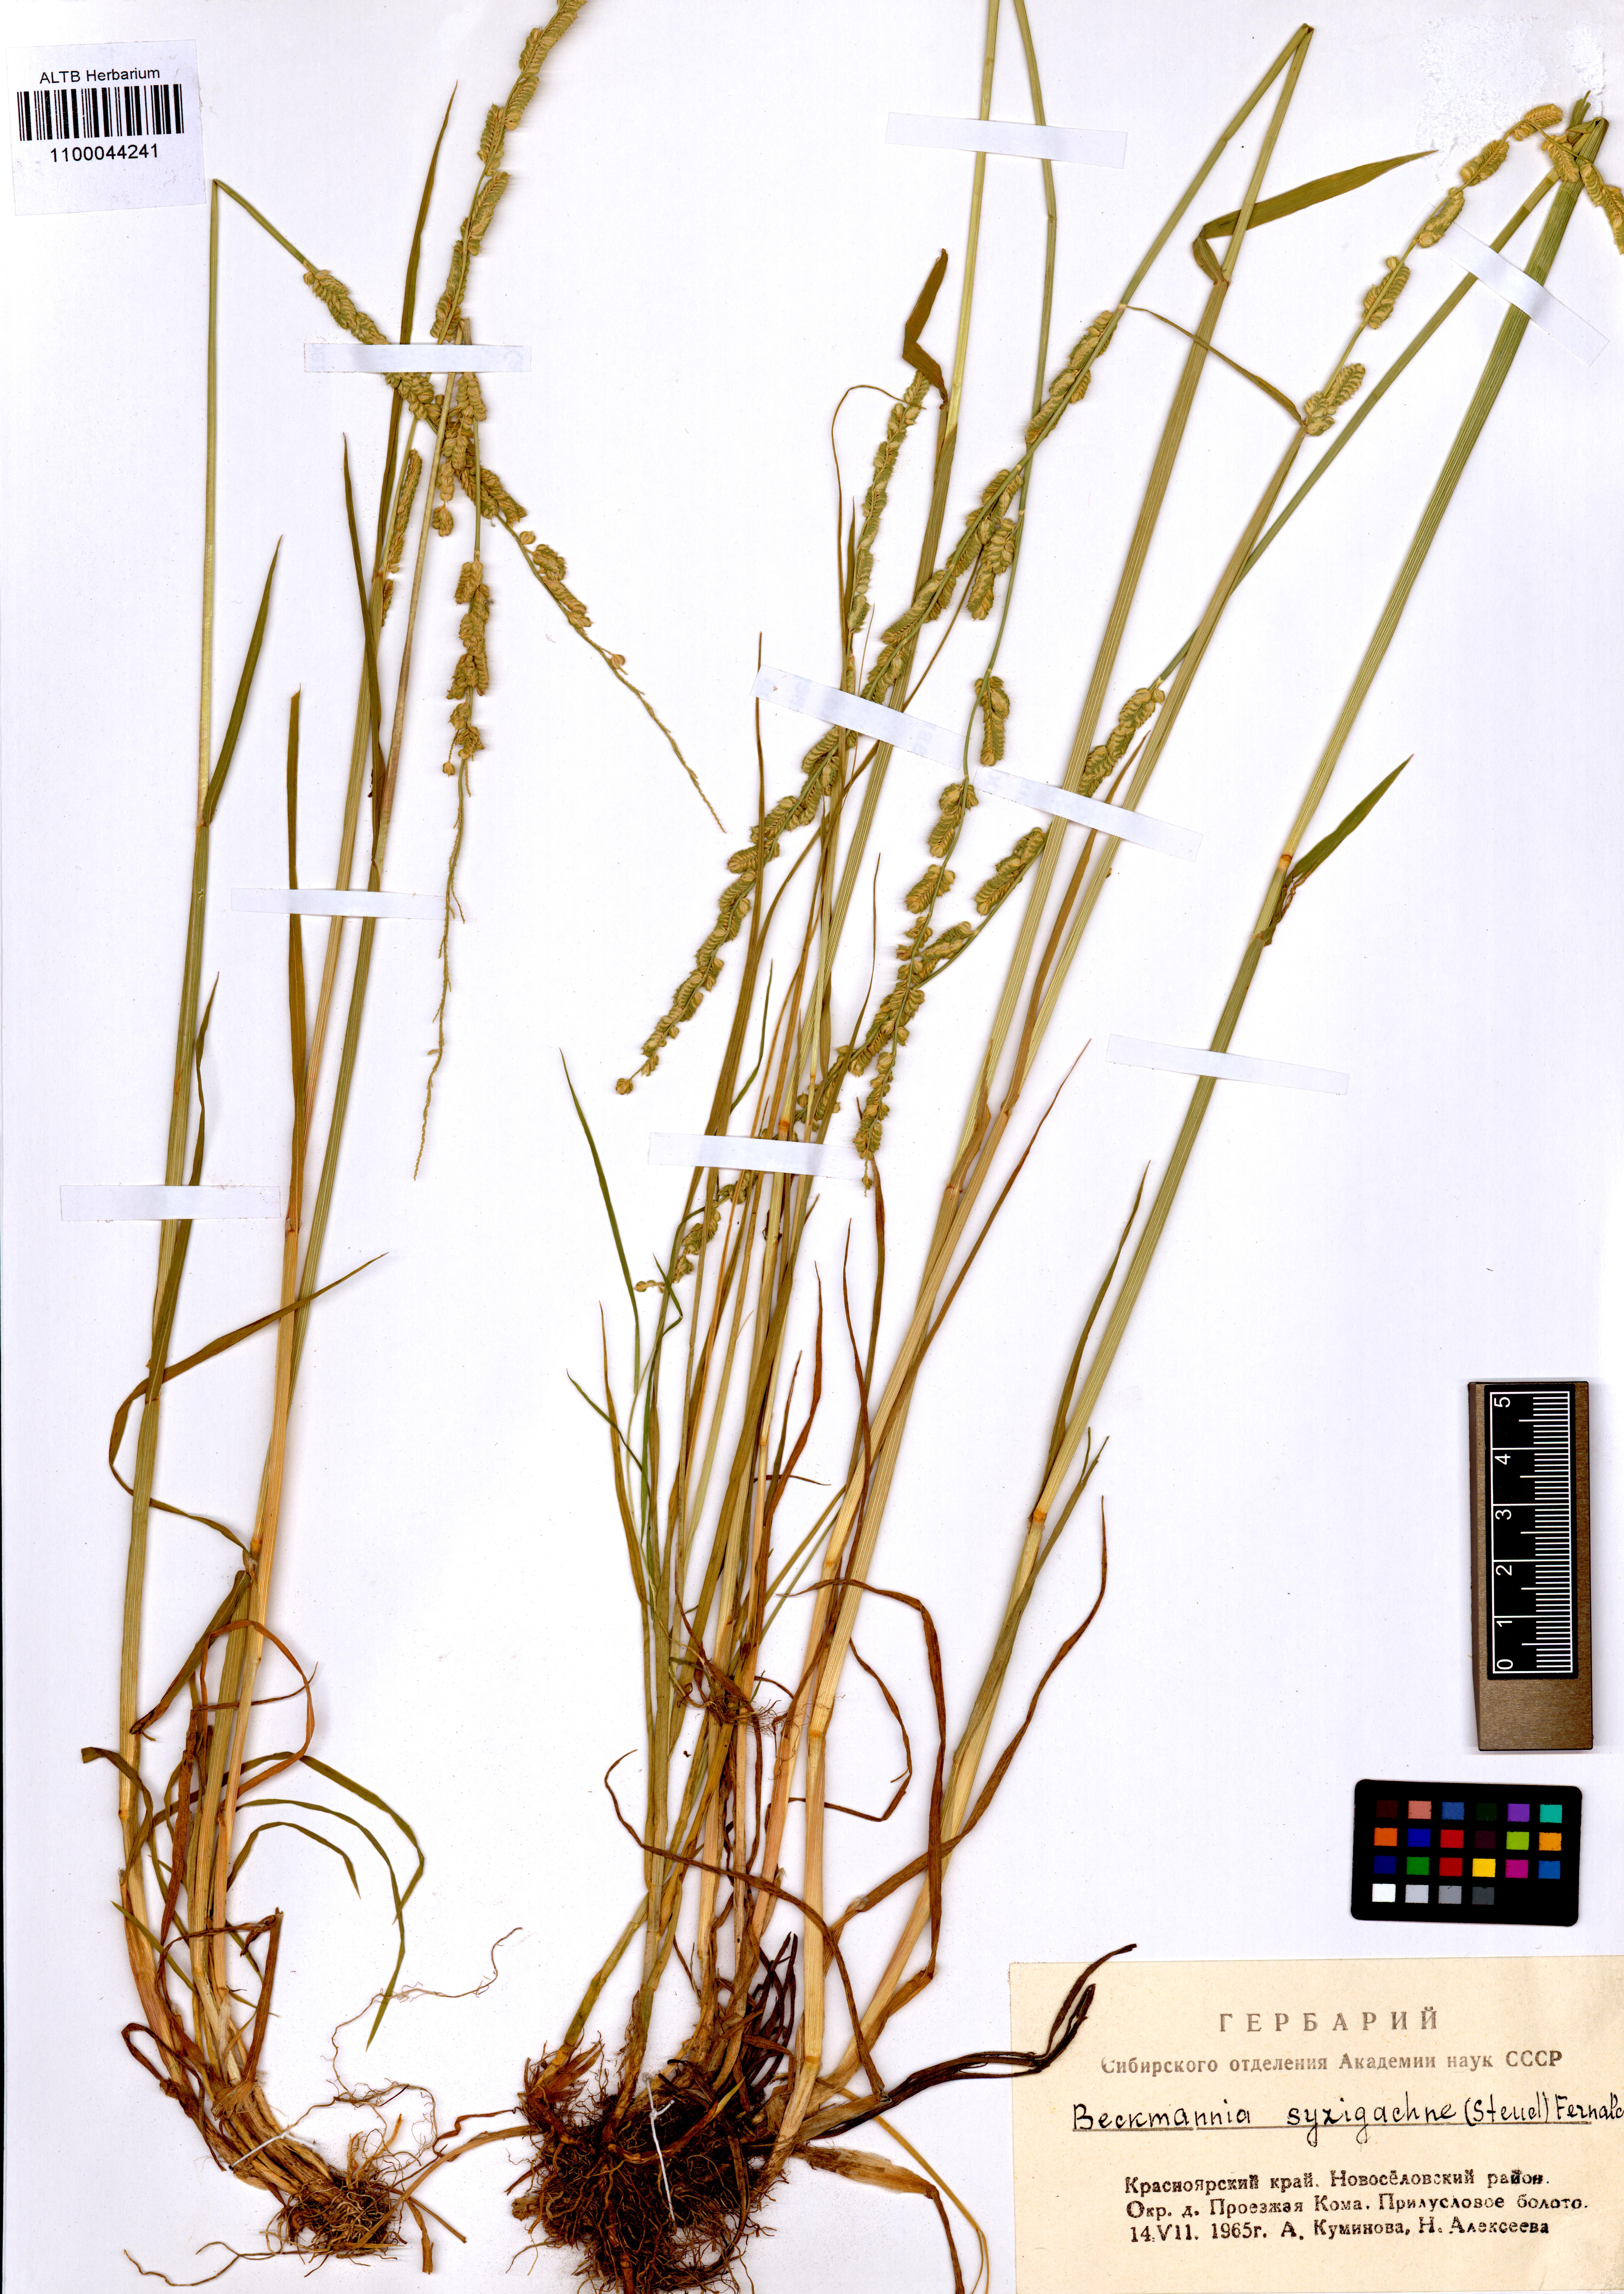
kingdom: Plantae
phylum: Tracheophyta
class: Liliopsida
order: Poales
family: Poaceae
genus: Beckmannia
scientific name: Beckmannia syzigachne
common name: American slough-grass
